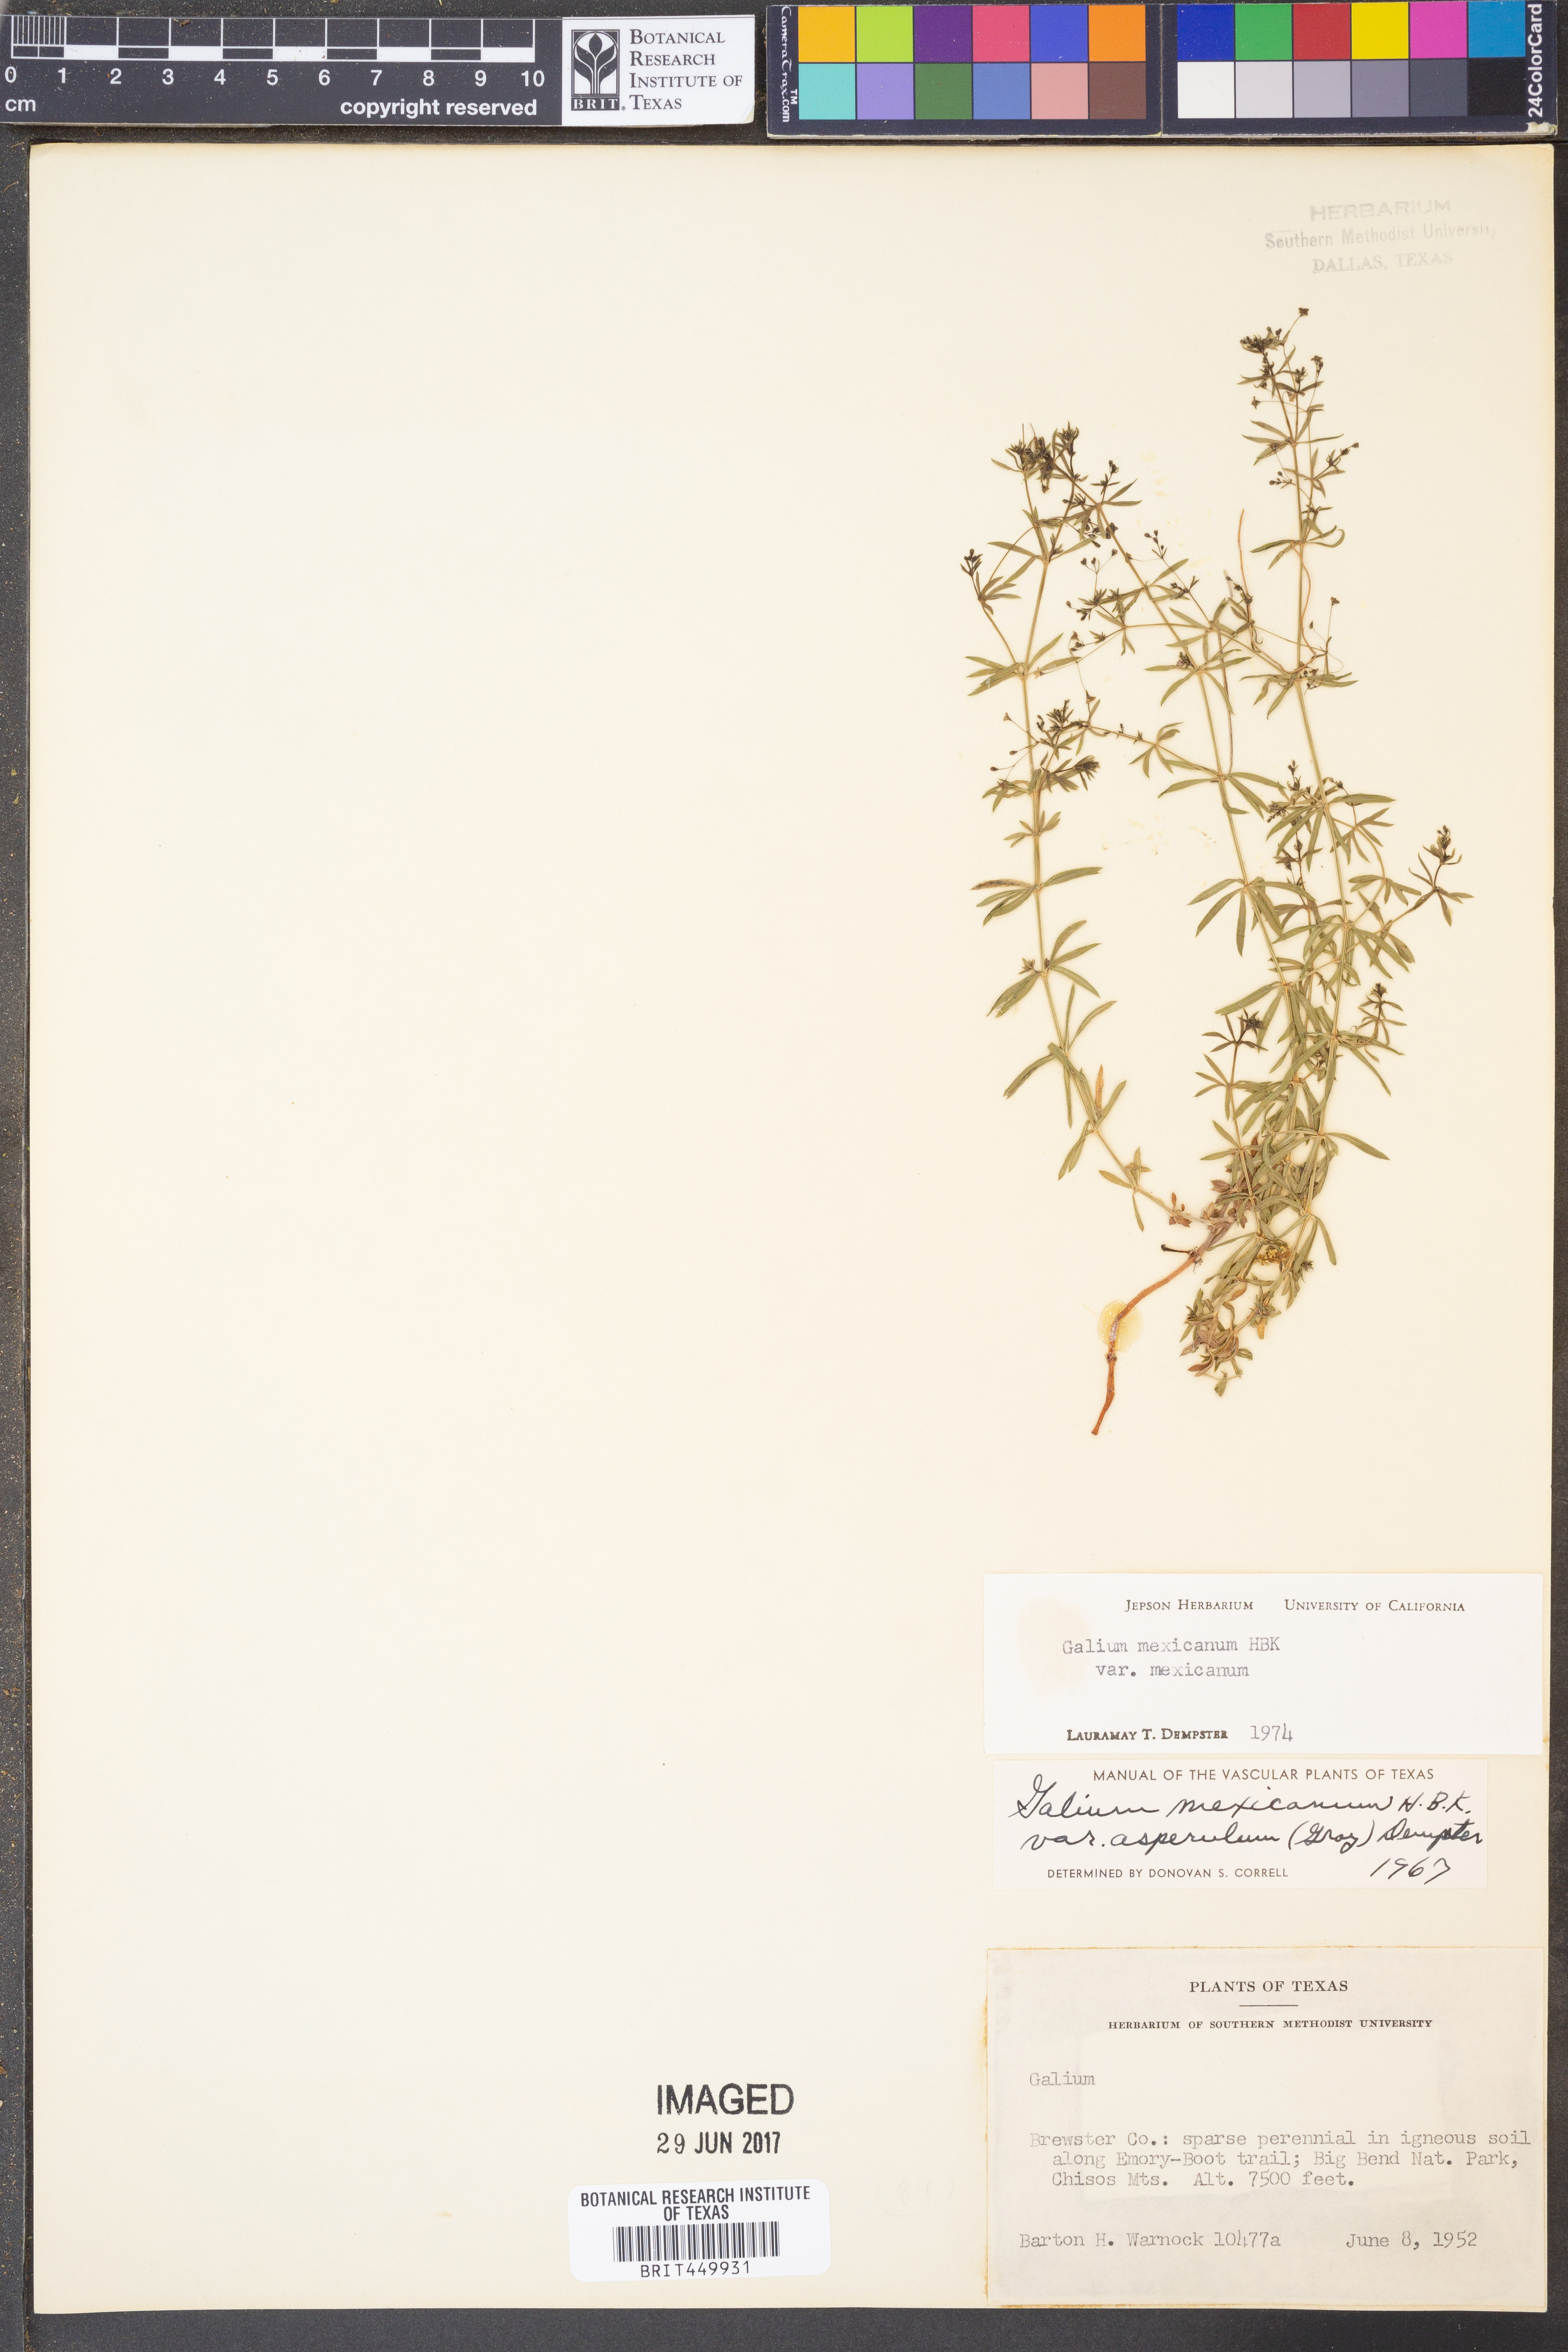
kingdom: Plantae
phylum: Tracheophyta
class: Magnoliopsida
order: Gentianales
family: Rubiaceae
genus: Galium
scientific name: Galium mexicanum
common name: Mexican bedstraw
